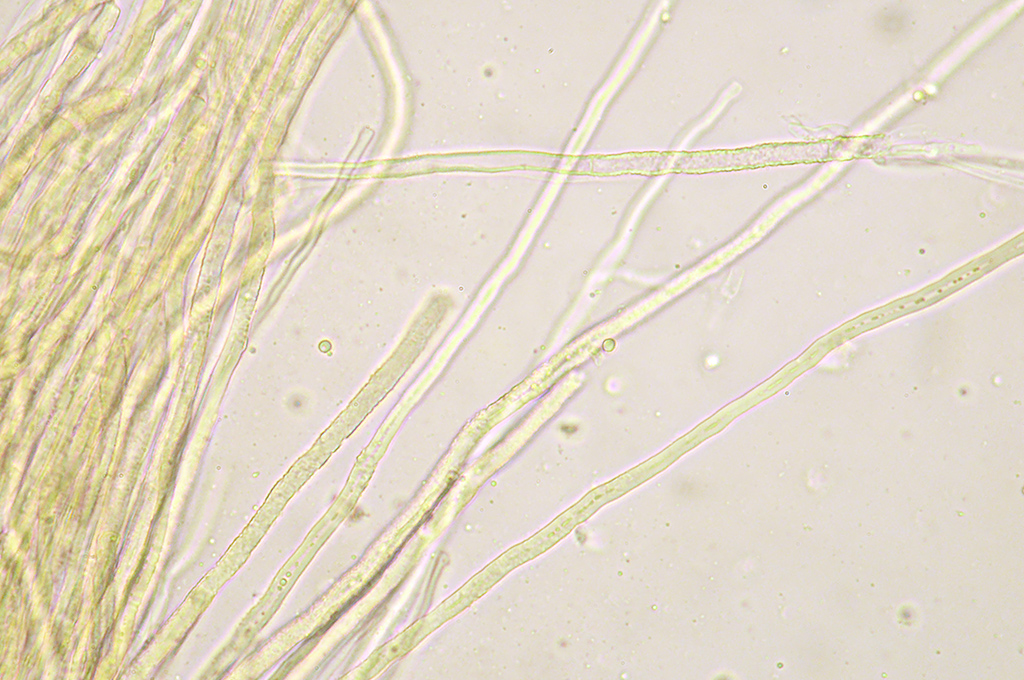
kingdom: Fungi
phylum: Basidiomycota
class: Agaricomycetes
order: Polyporales
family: Meruliaceae
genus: Mycoaciella
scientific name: Mycoaciella bispora
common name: stalaktit-vokspig
